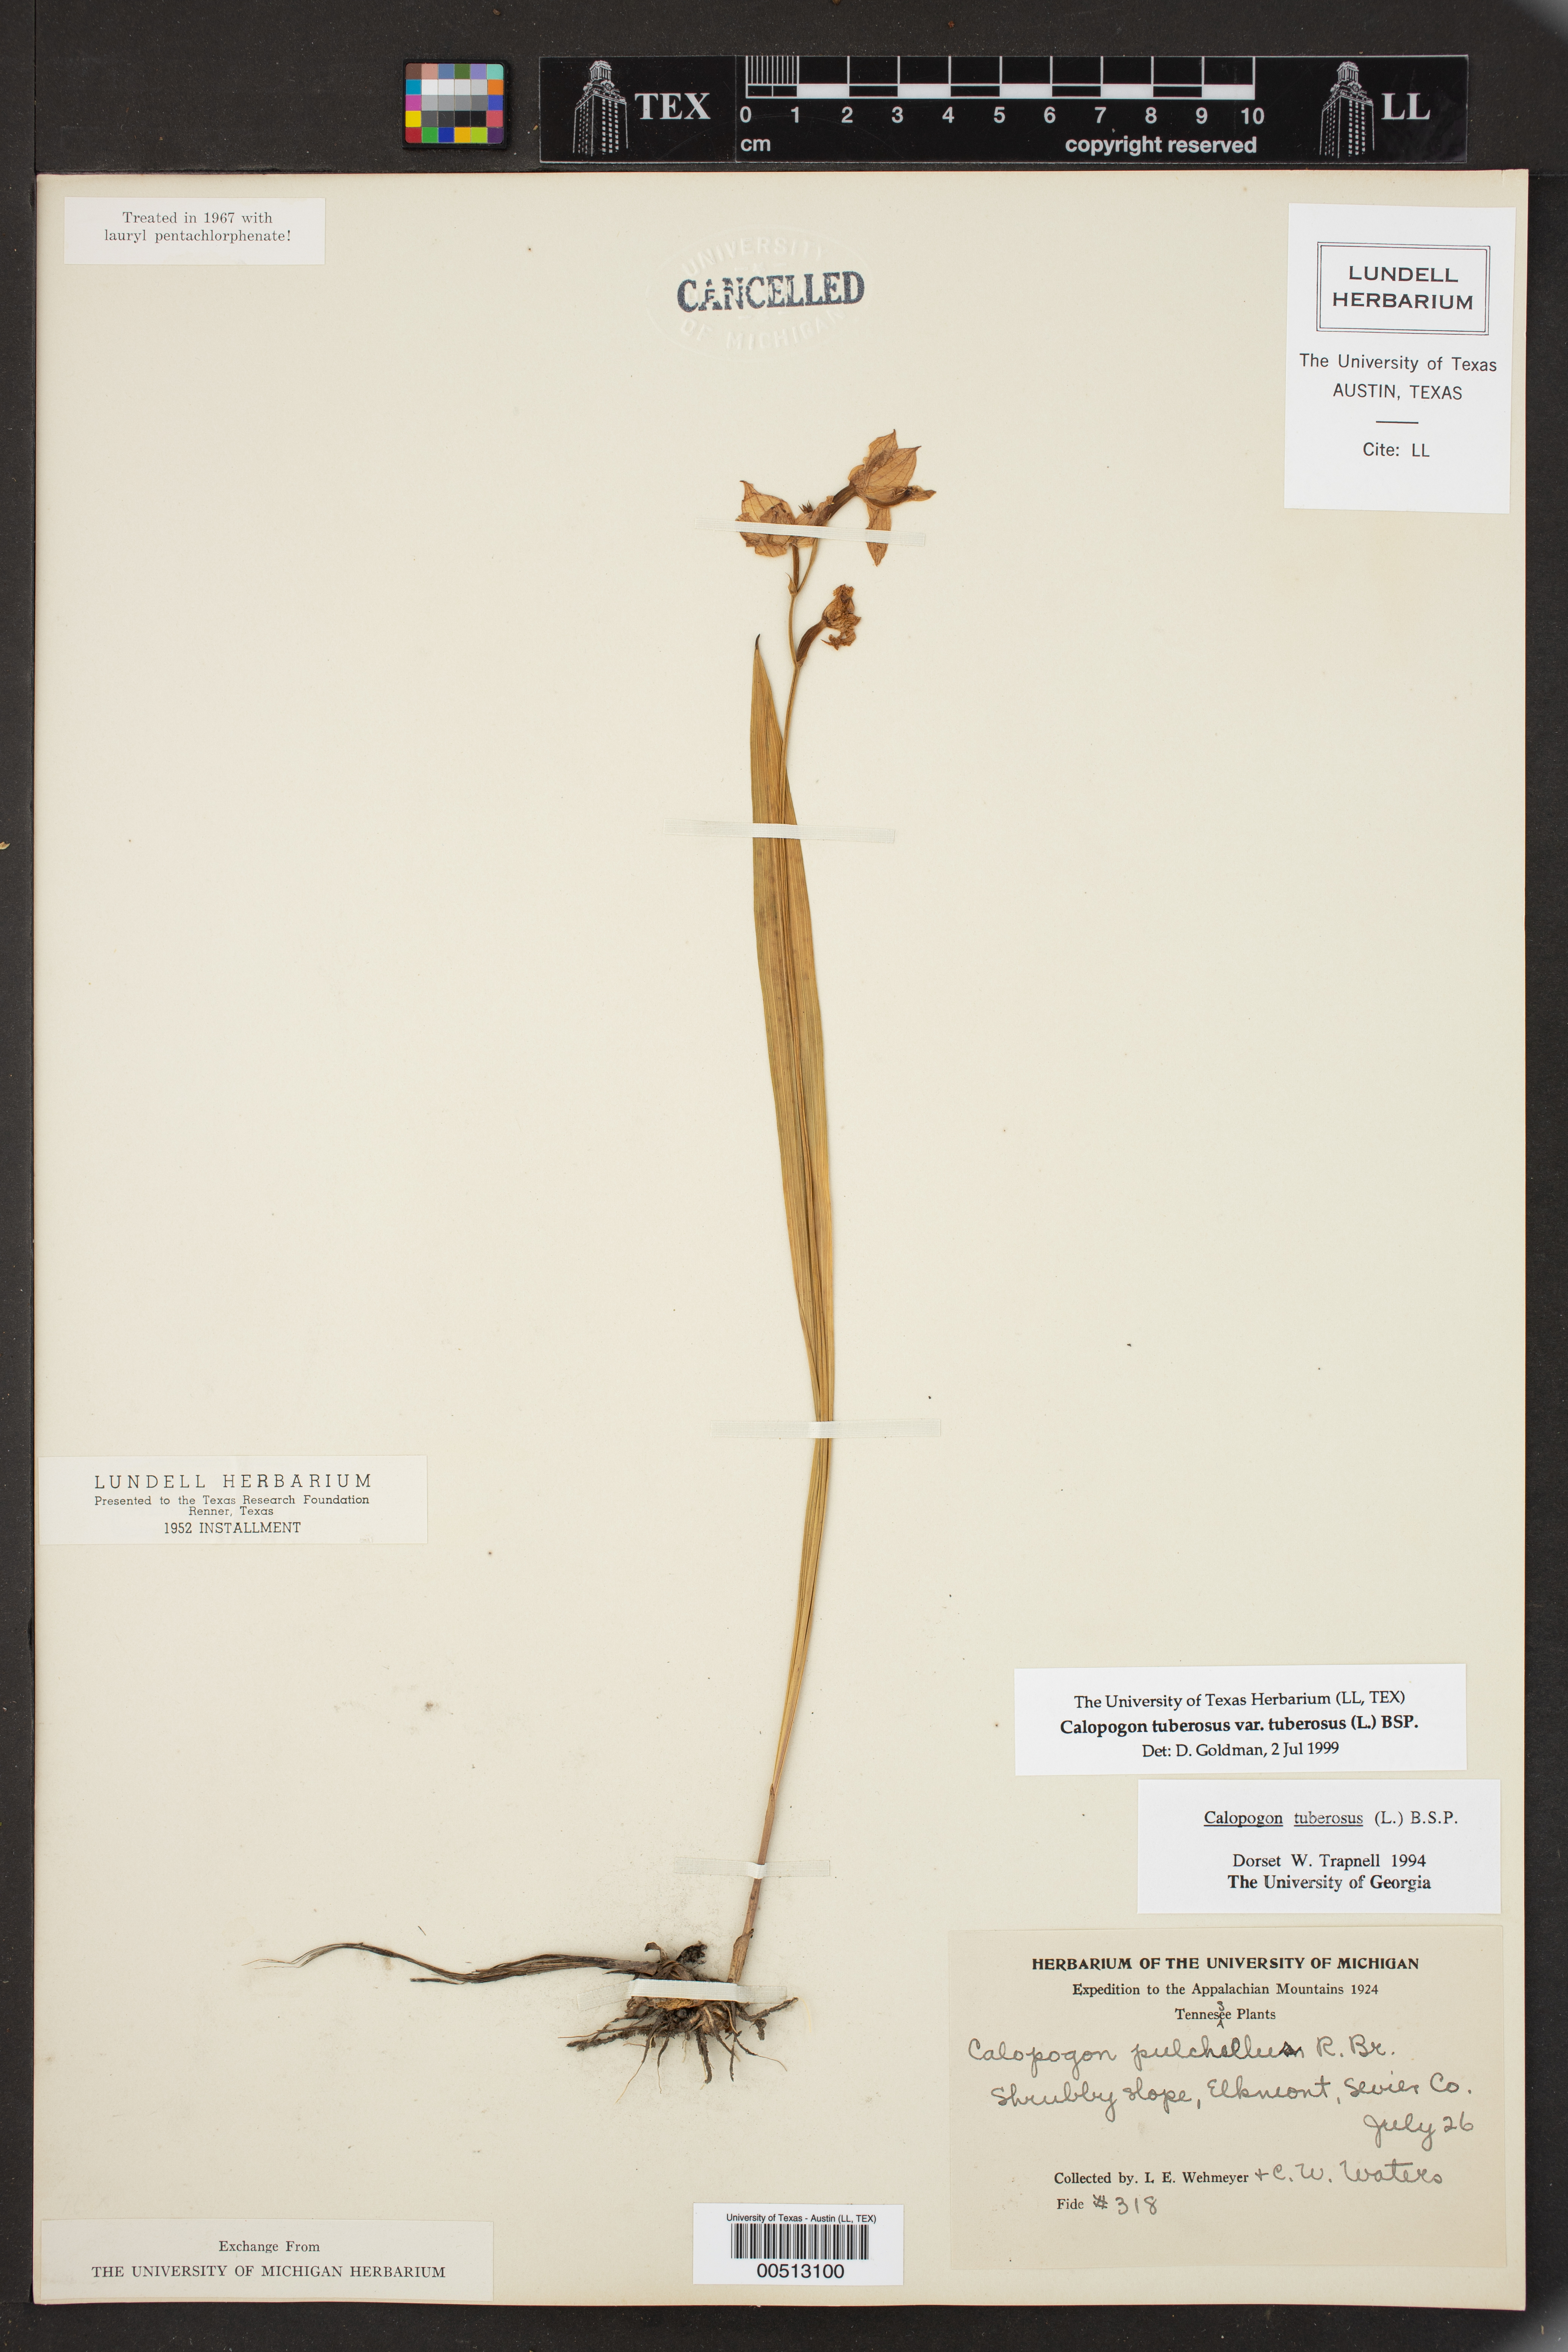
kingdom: Plantae
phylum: Tracheophyta
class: Liliopsida
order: Asparagales
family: Orchidaceae
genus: Calopogon
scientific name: Calopogon tuberosus
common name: Grass-pink
